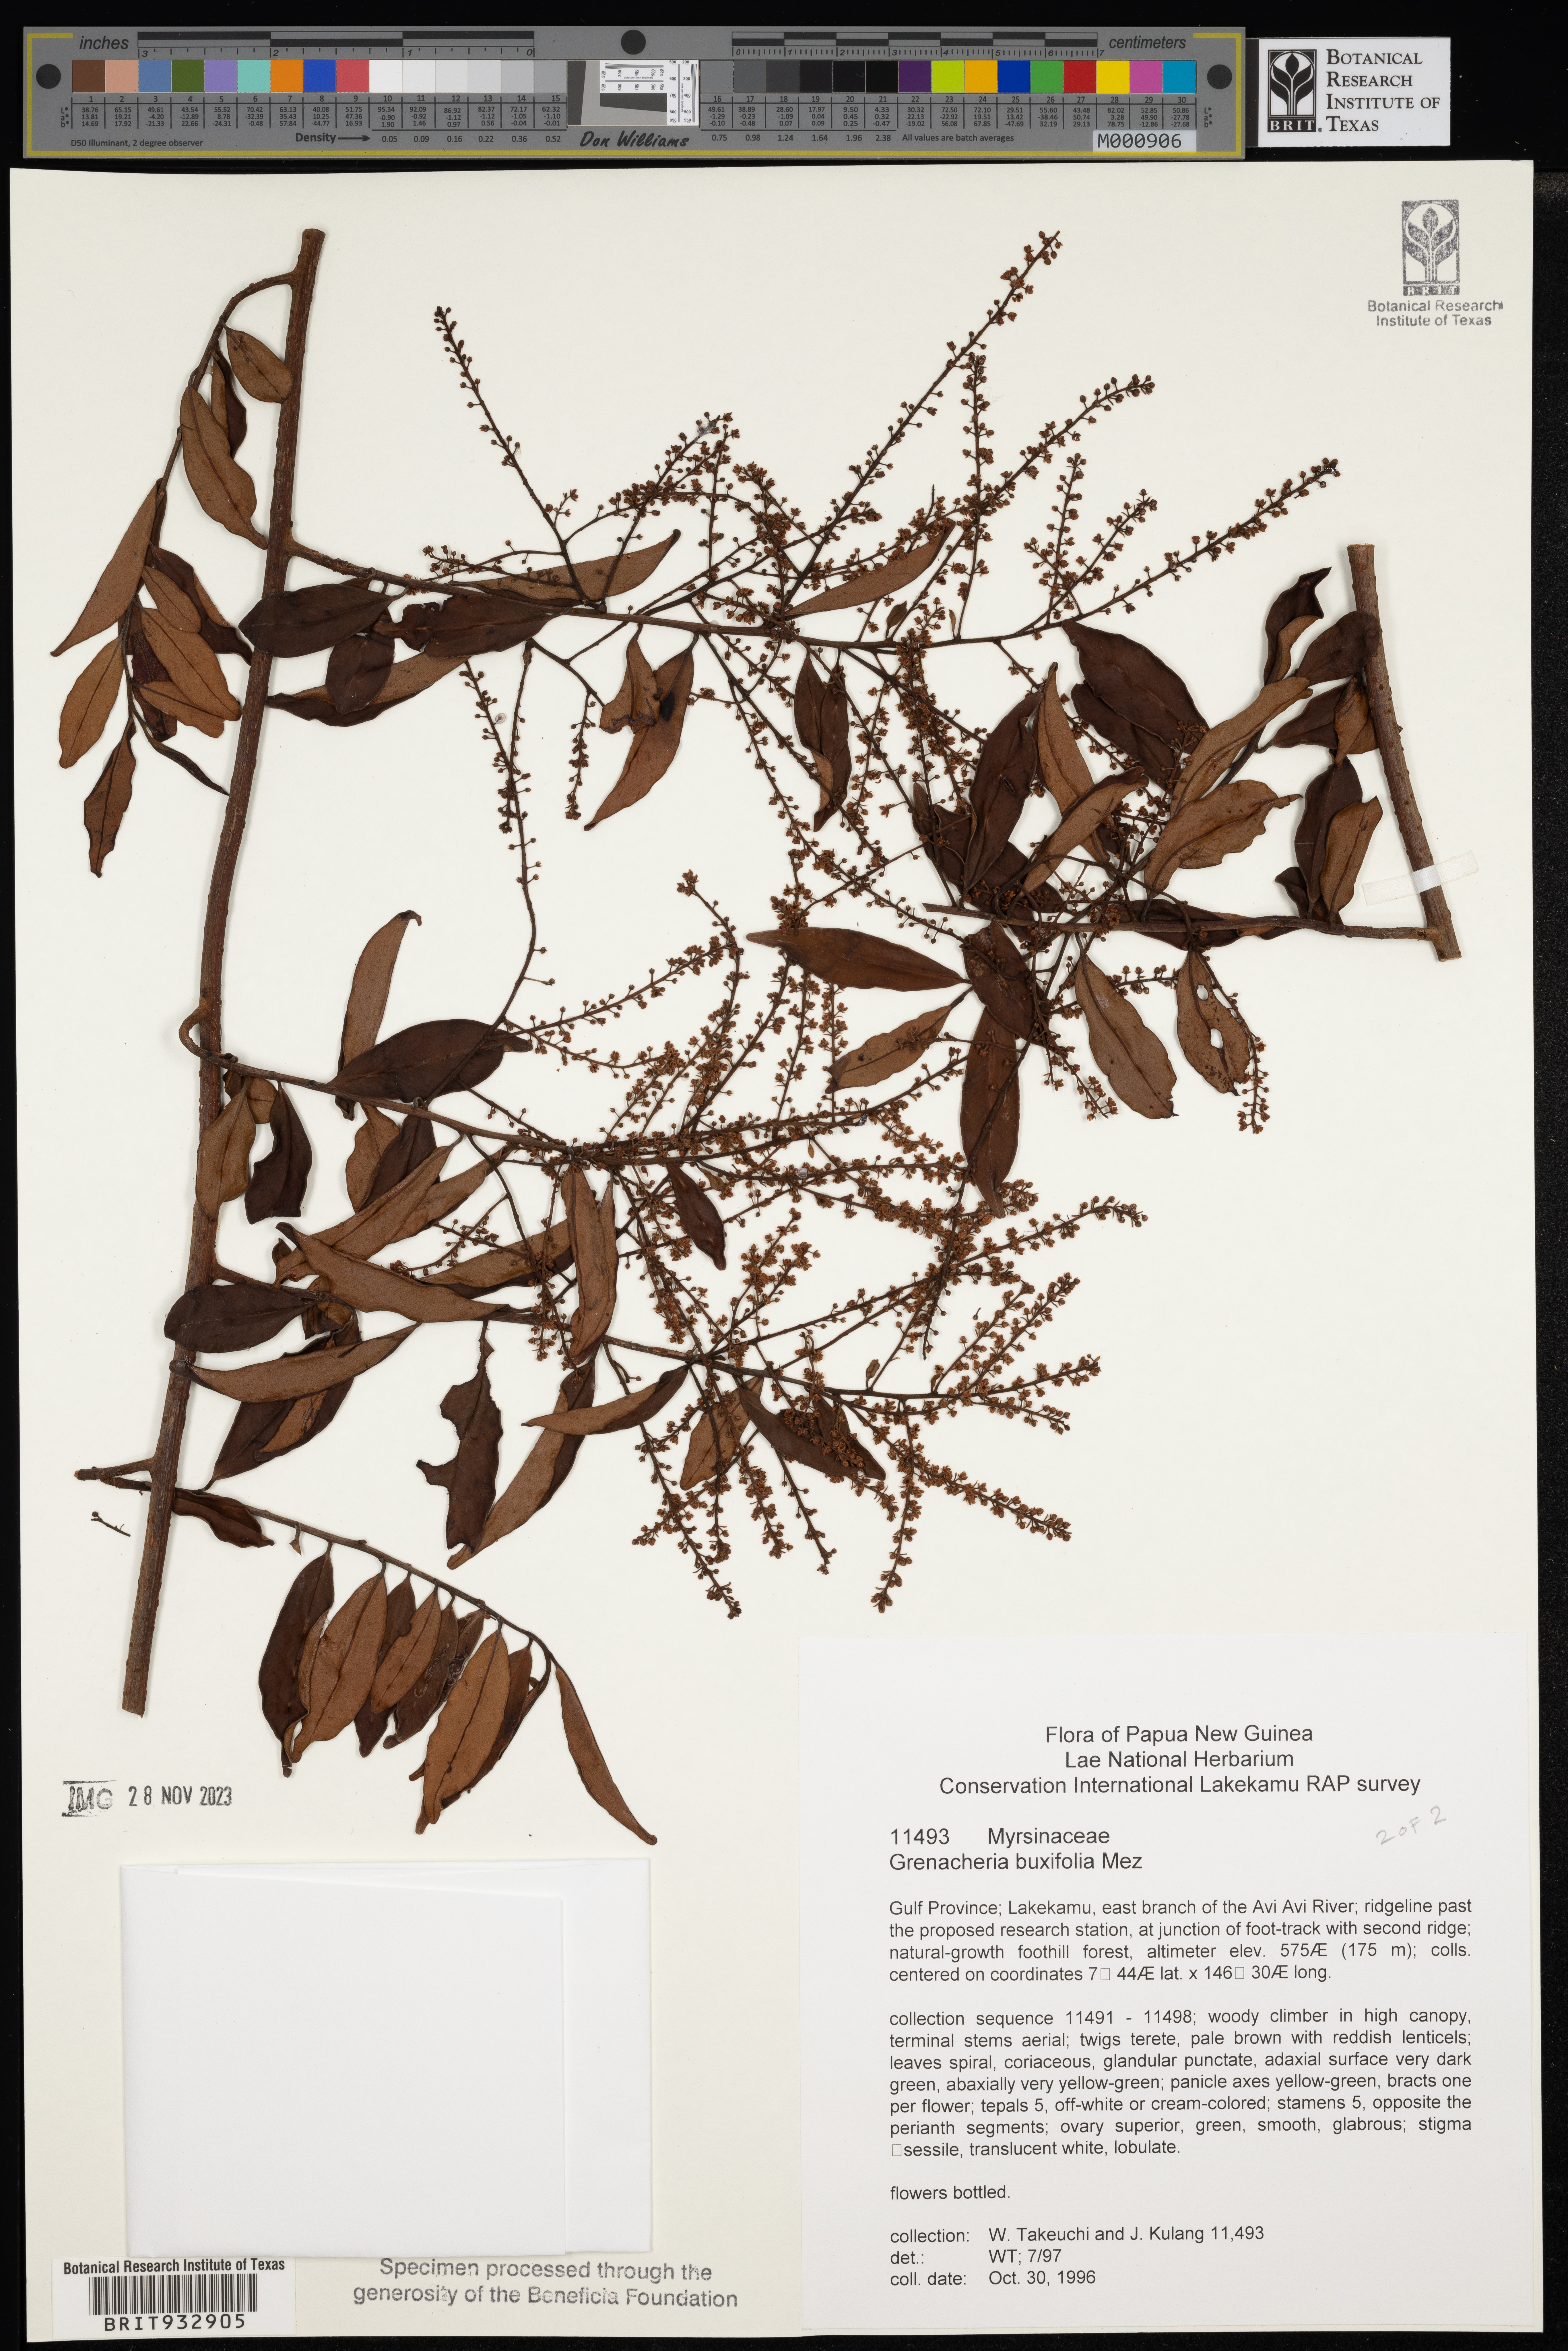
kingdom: Plantae
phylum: Tracheophyta
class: Magnoliopsida
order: Ericales
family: Primulaceae
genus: Grenacheria
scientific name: Grenacheria
